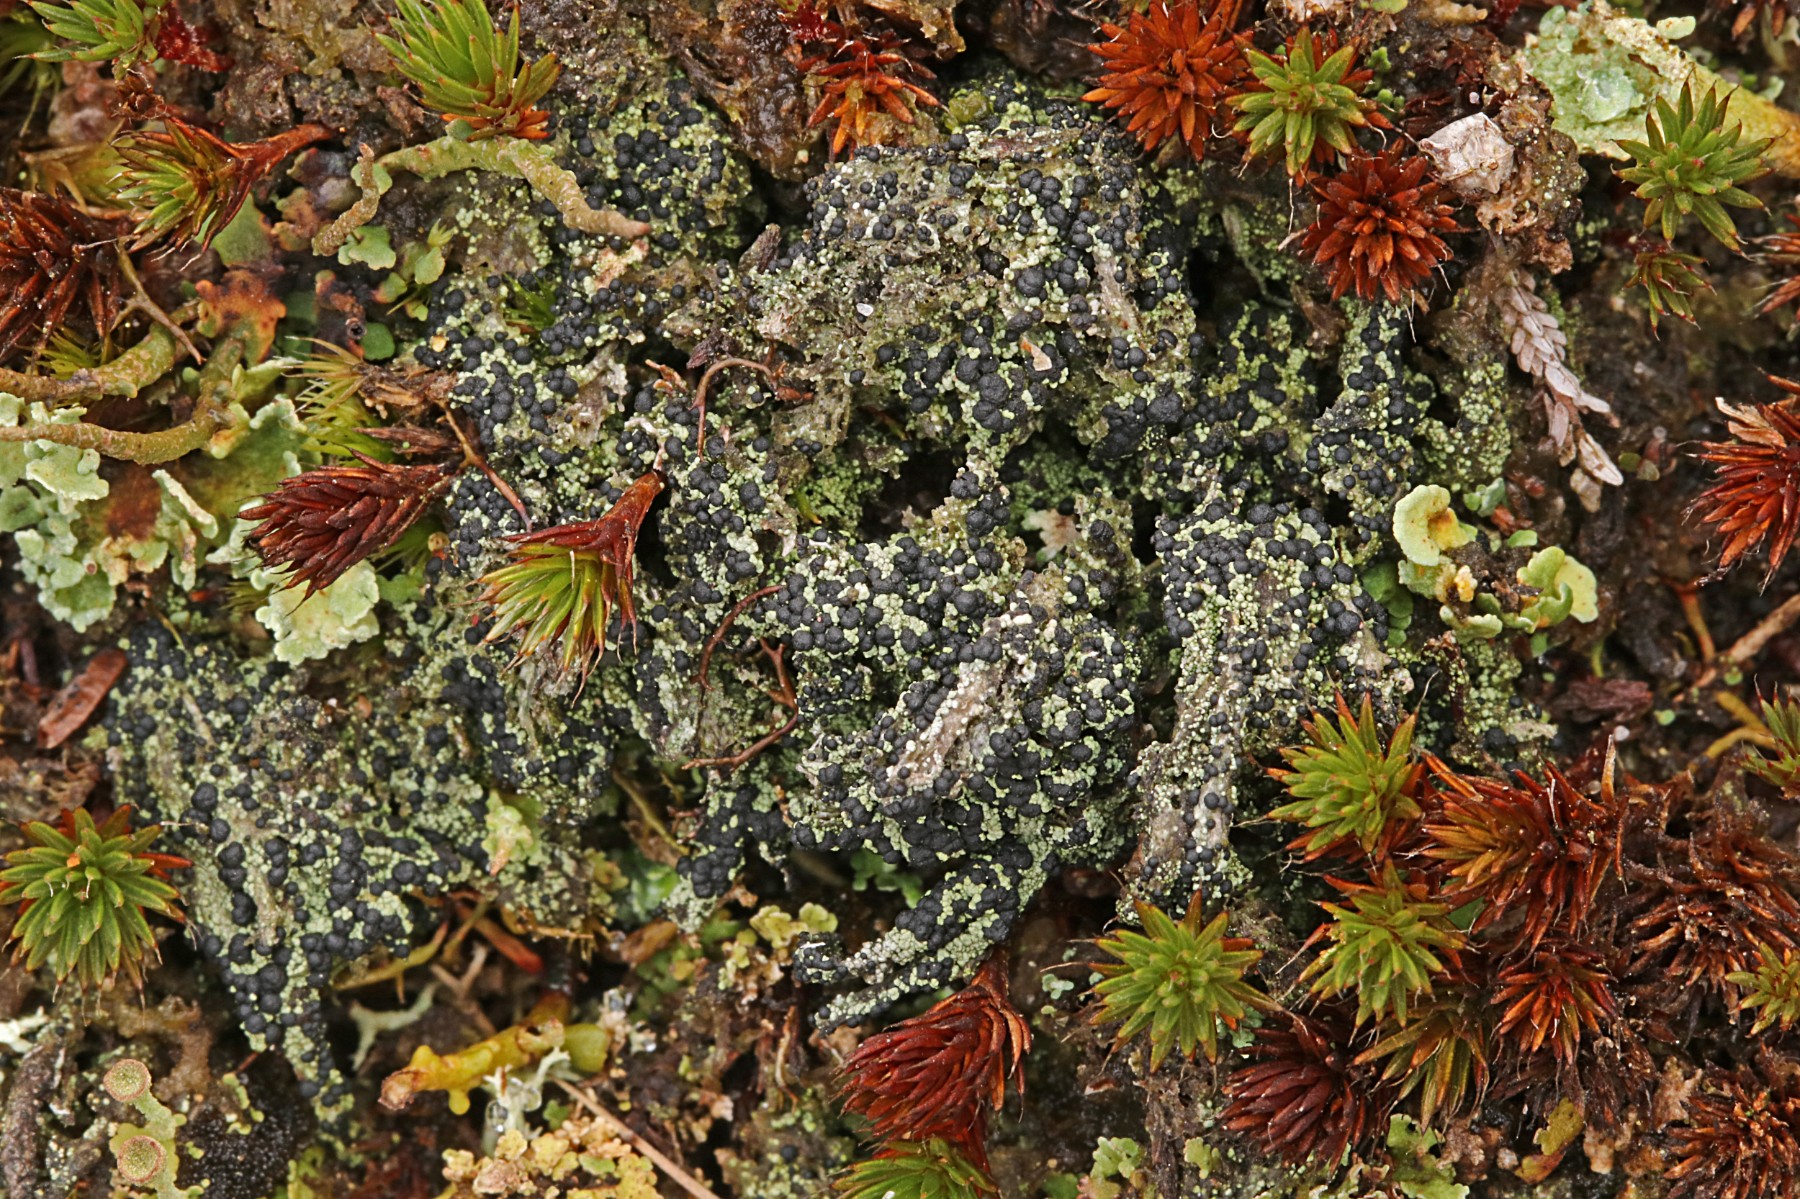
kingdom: Fungi
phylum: Ascomycota
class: Lecanoromycetes
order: Lecanorales
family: Byssolomataceae
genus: Micarea
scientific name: Micarea lignaria
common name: tørve-knaplav
